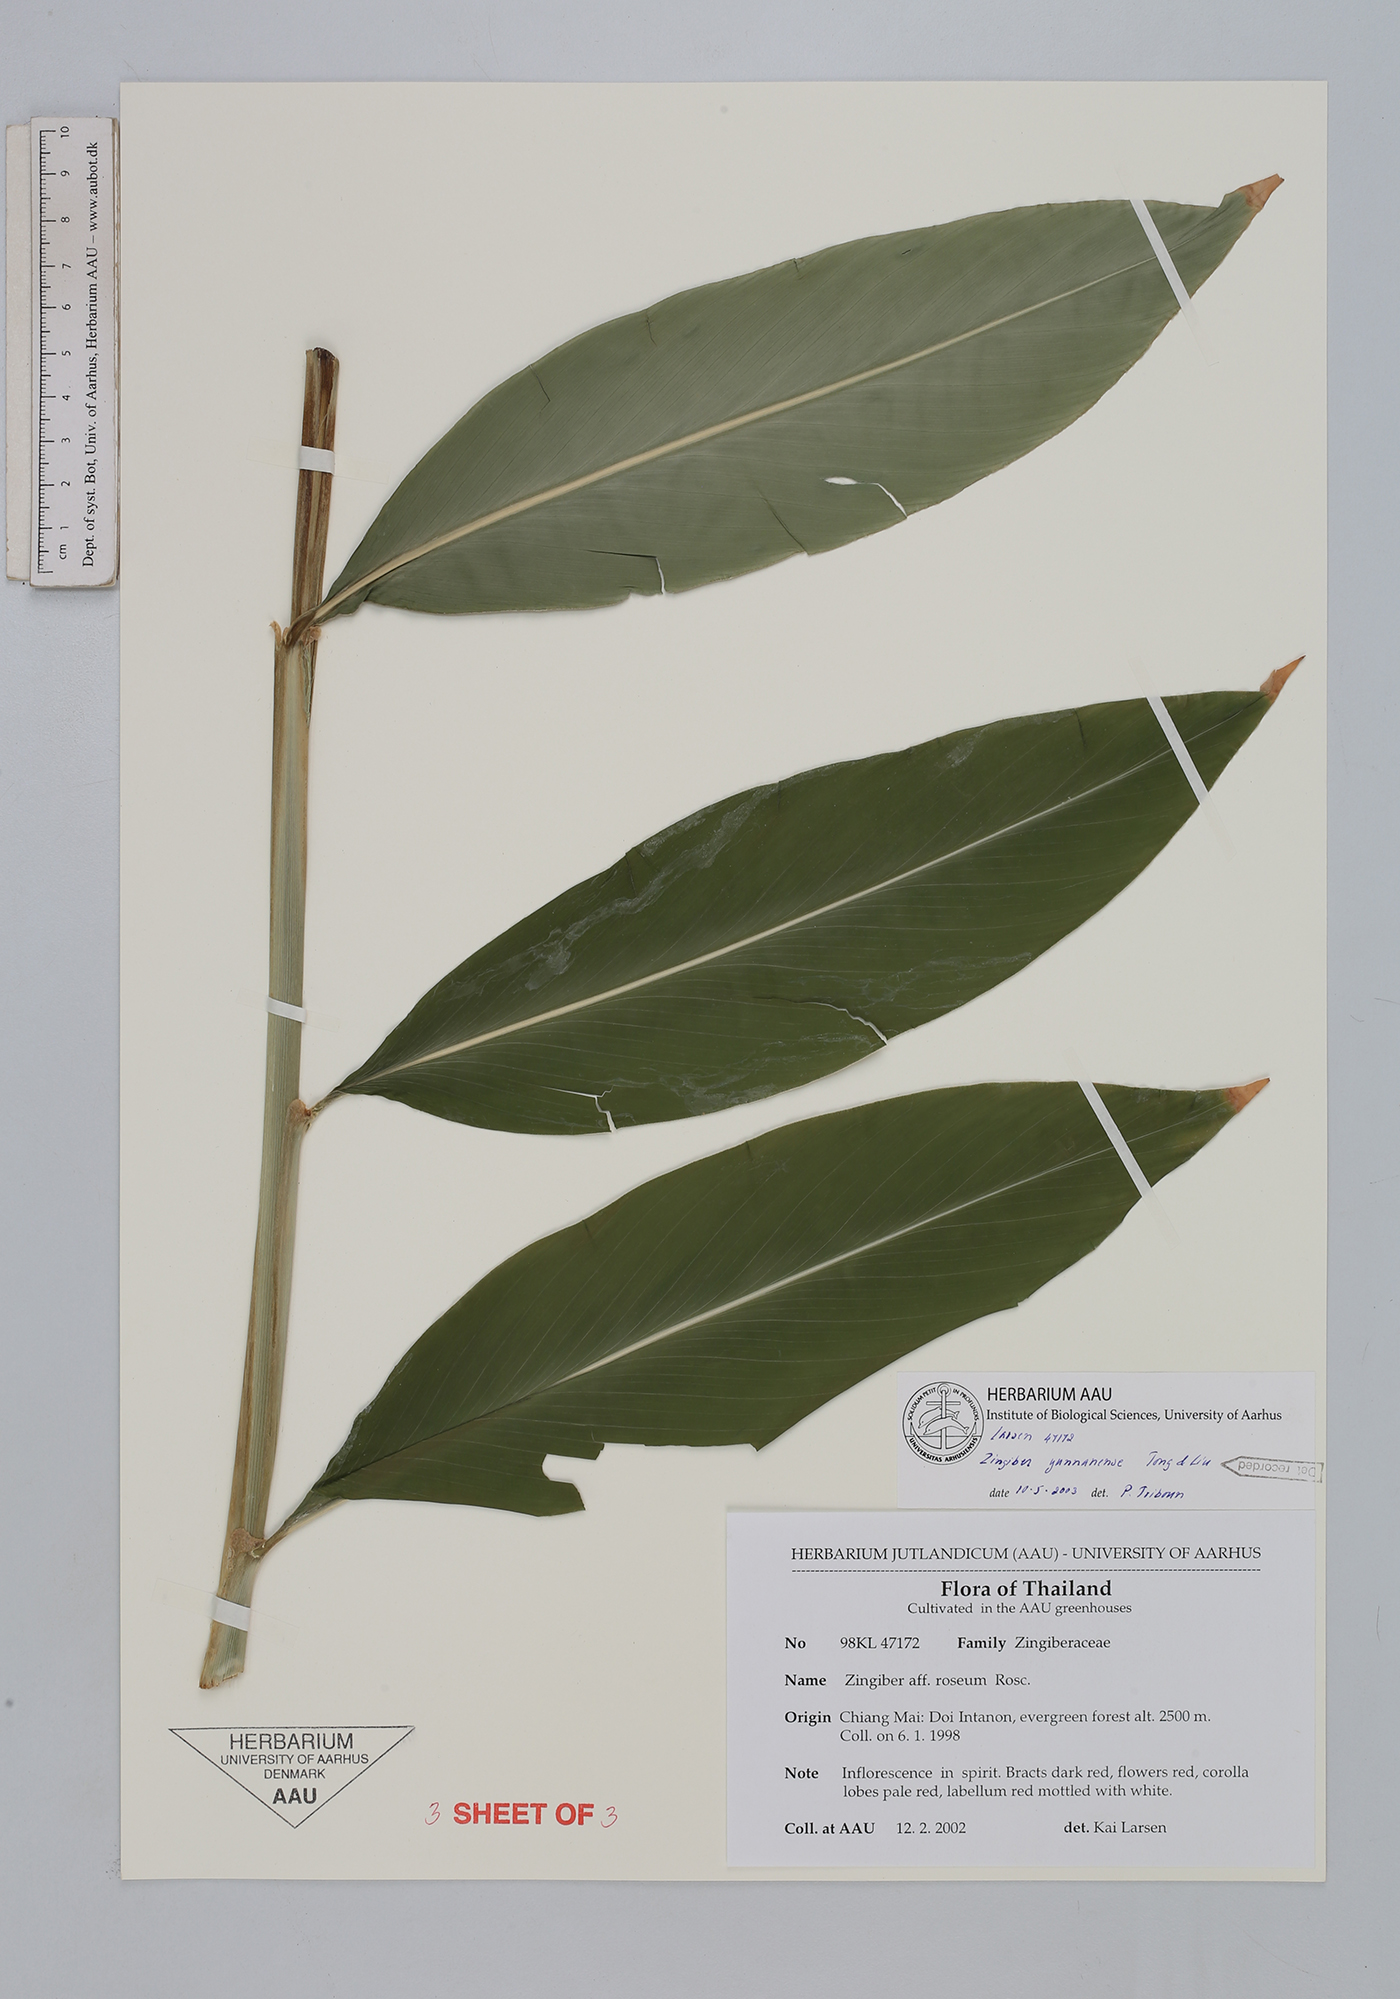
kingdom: Plantae
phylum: Tracheophyta
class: Liliopsida
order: Zingiberales
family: Zingiberaceae
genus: Zingiber
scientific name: Zingiber yunnanense
